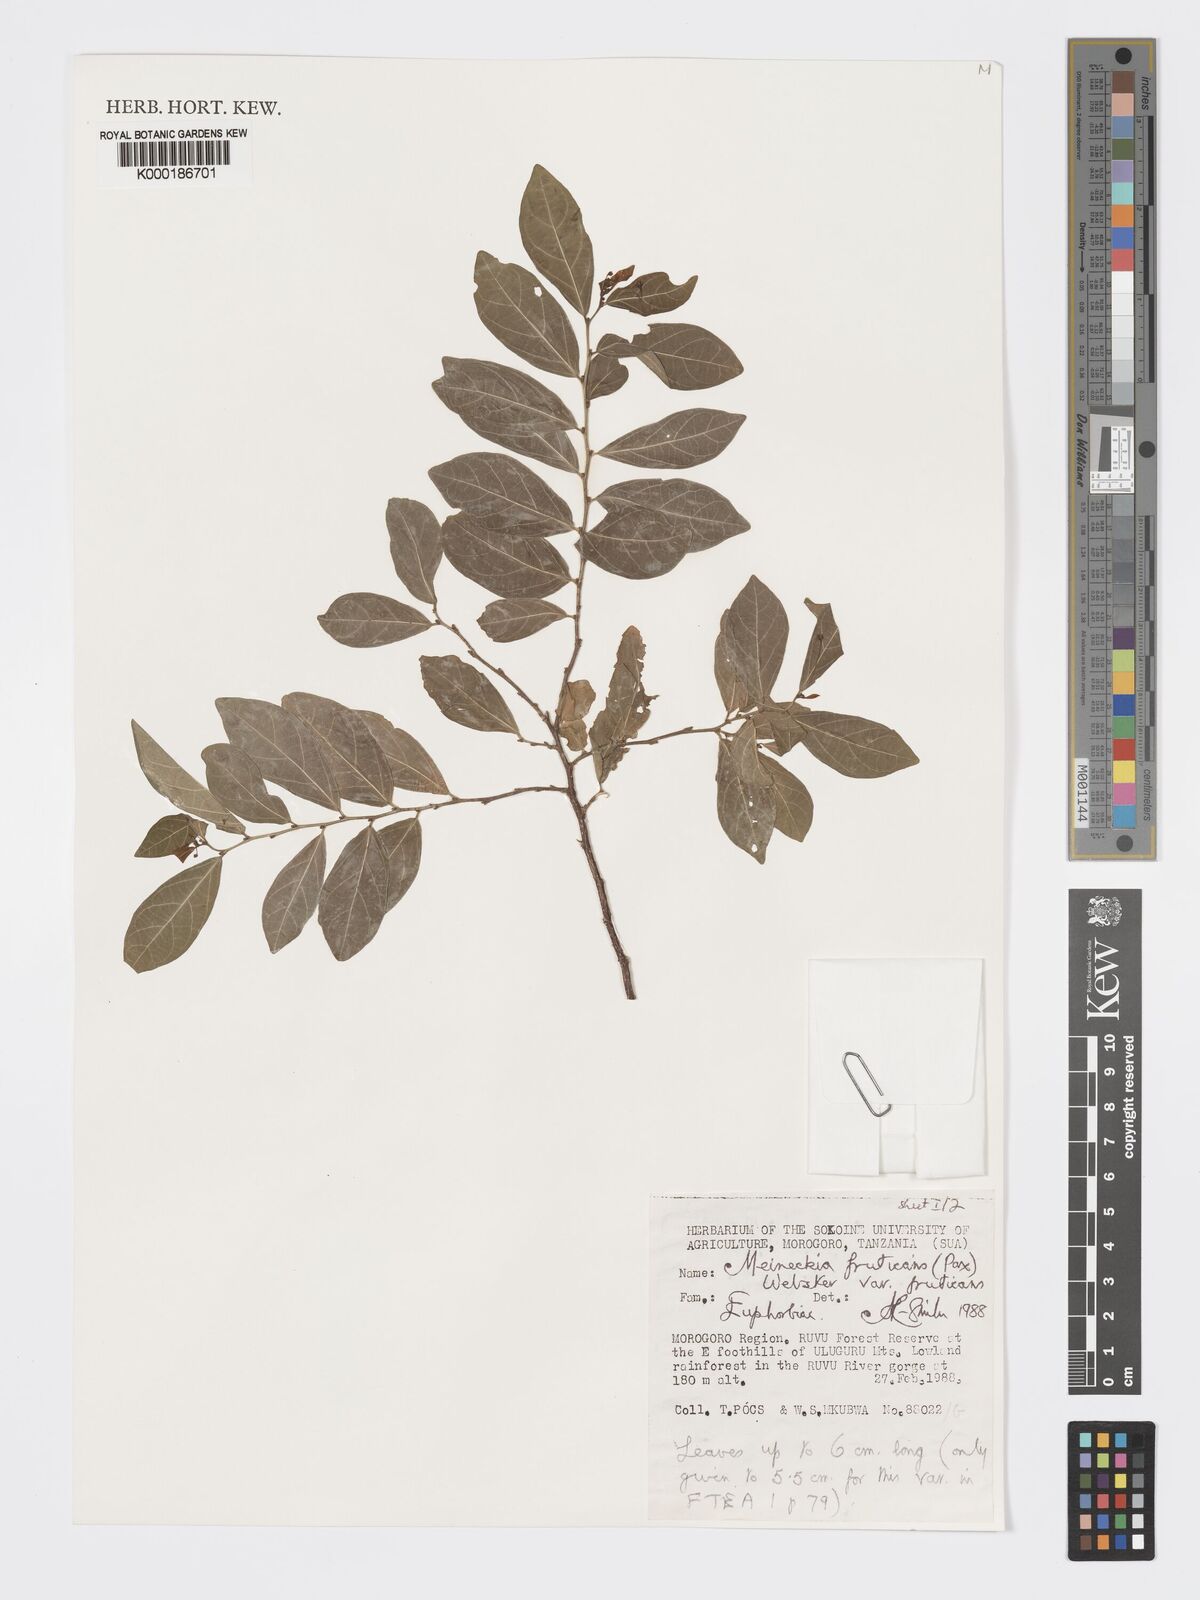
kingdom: Plantae
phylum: Tracheophyta
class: Magnoliopsida
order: Malpighiales
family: Phyllanthaceae
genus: Meineckia
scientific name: Meineckia fruticans
